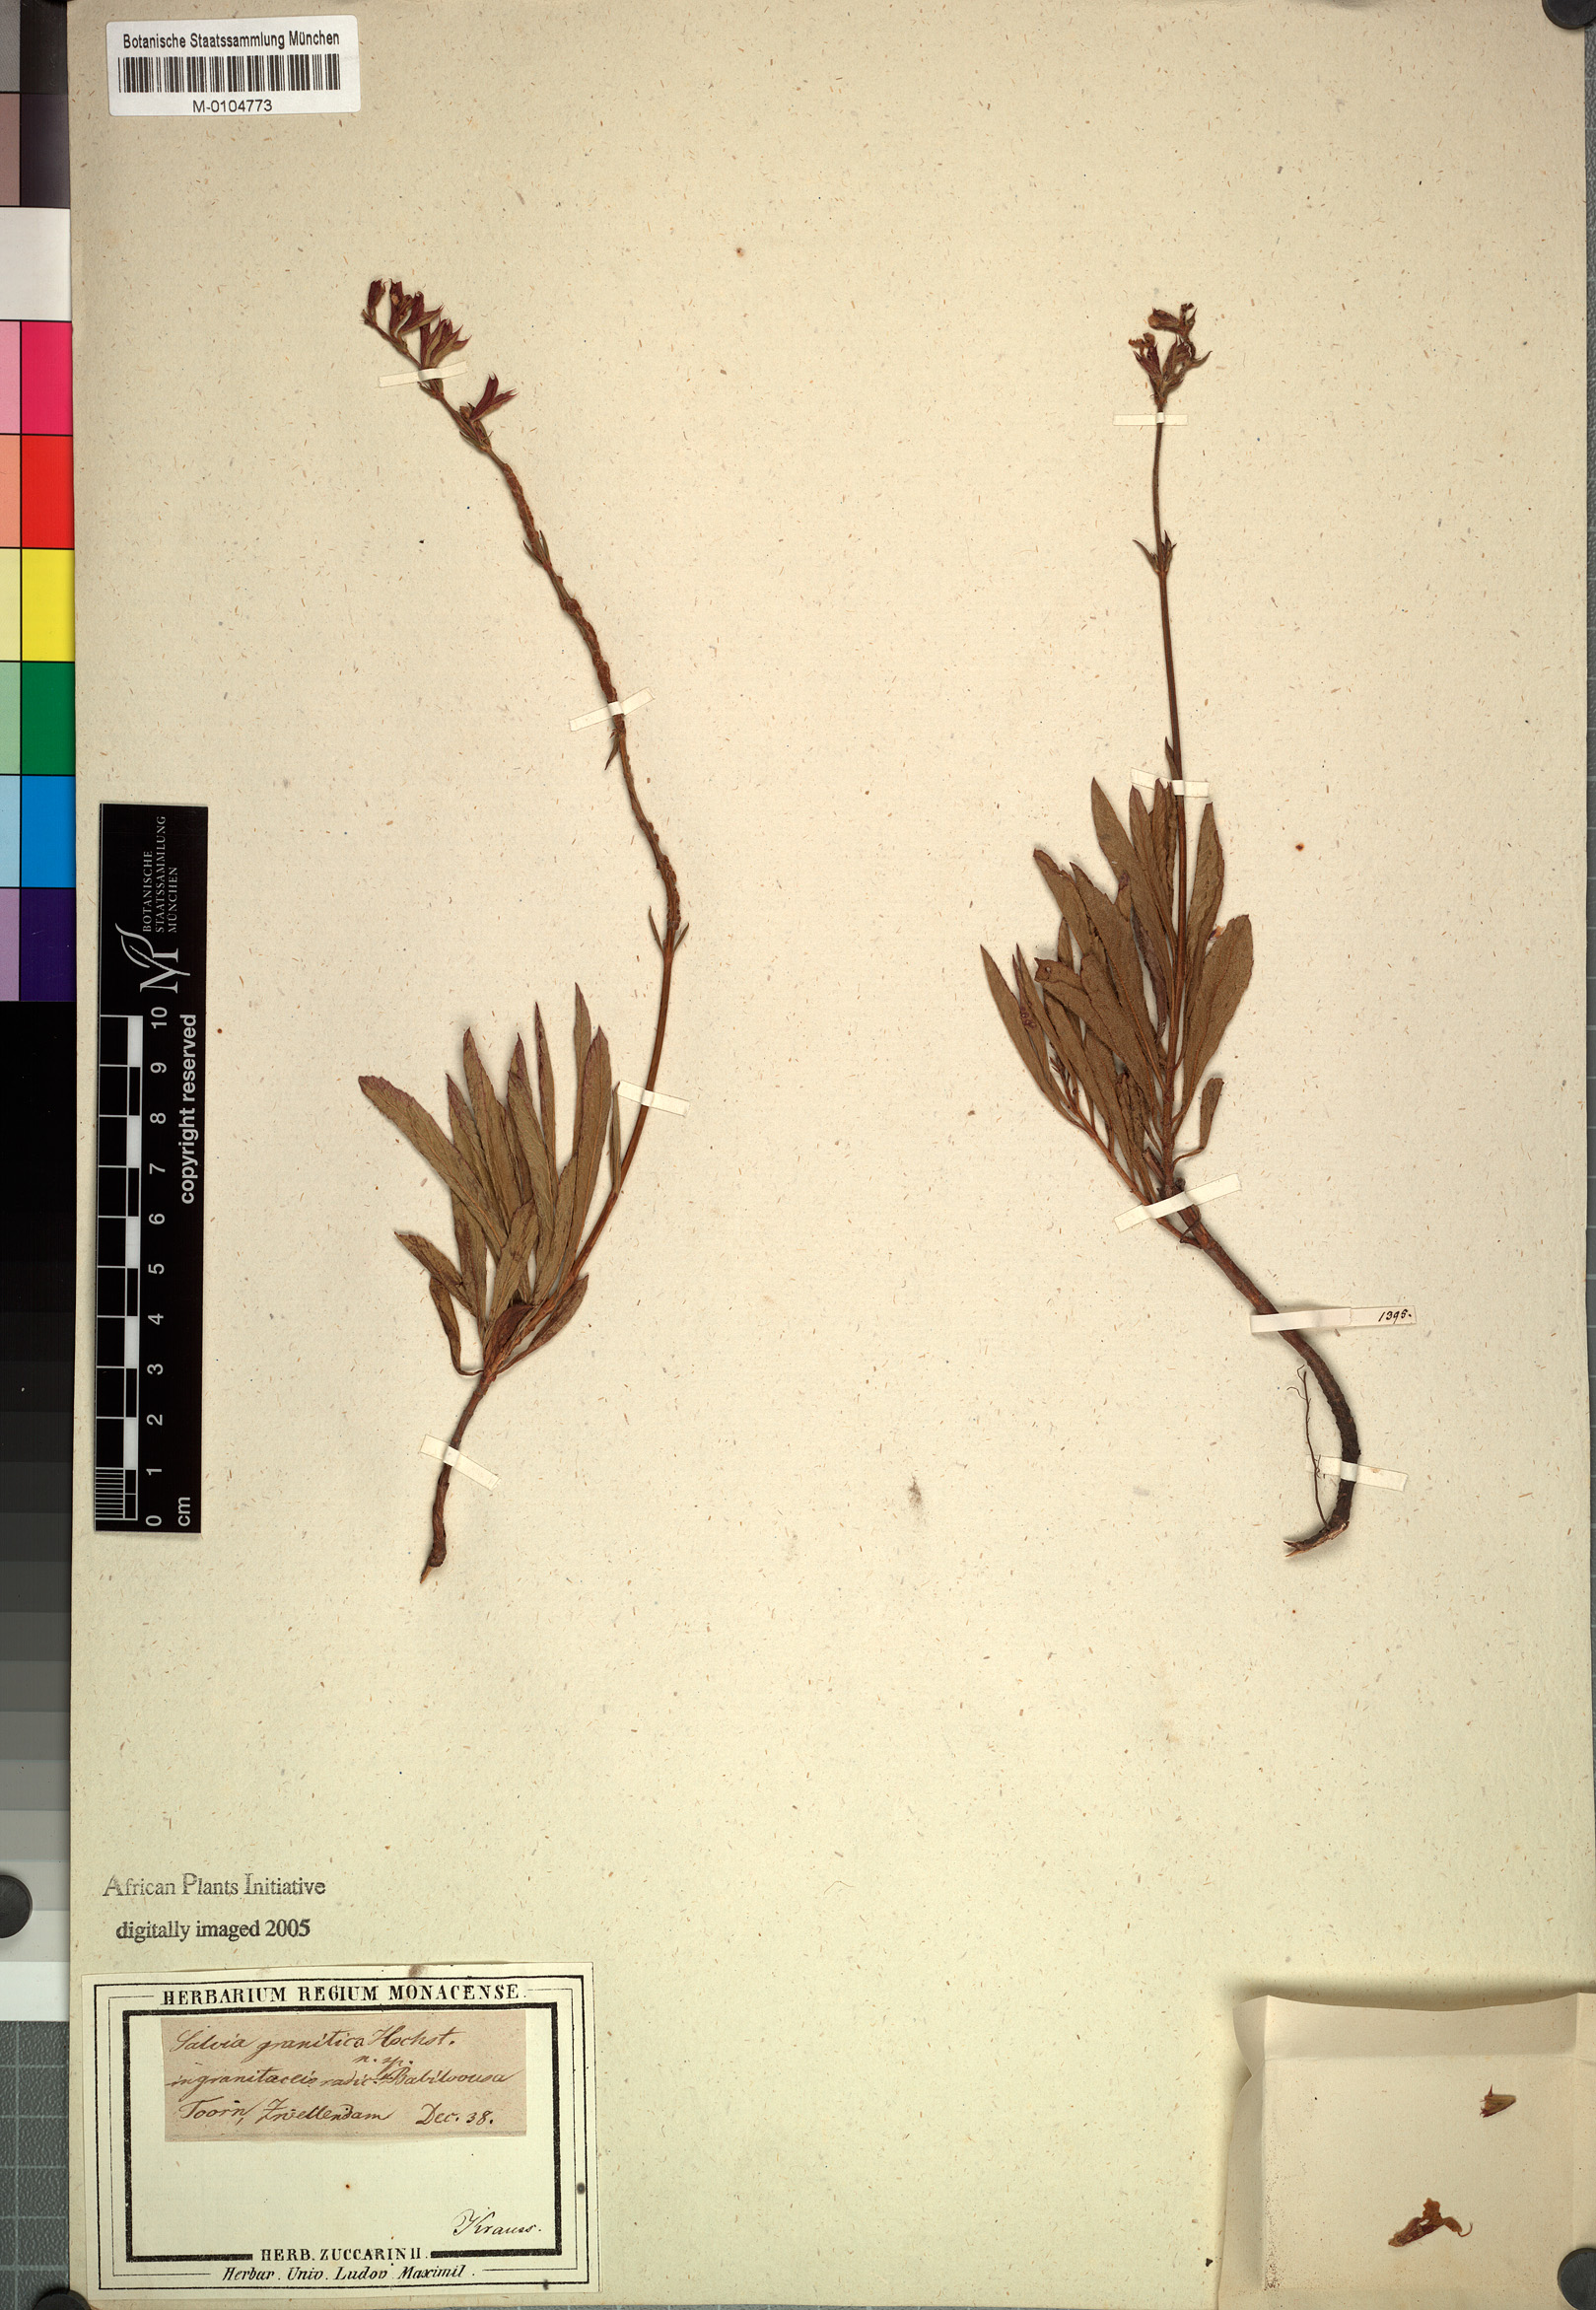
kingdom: Plantae
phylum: Tracheophyta
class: Magnoliopsida
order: Lamiales
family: Lamiaceae
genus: Salvia
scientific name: Salvia granitica
